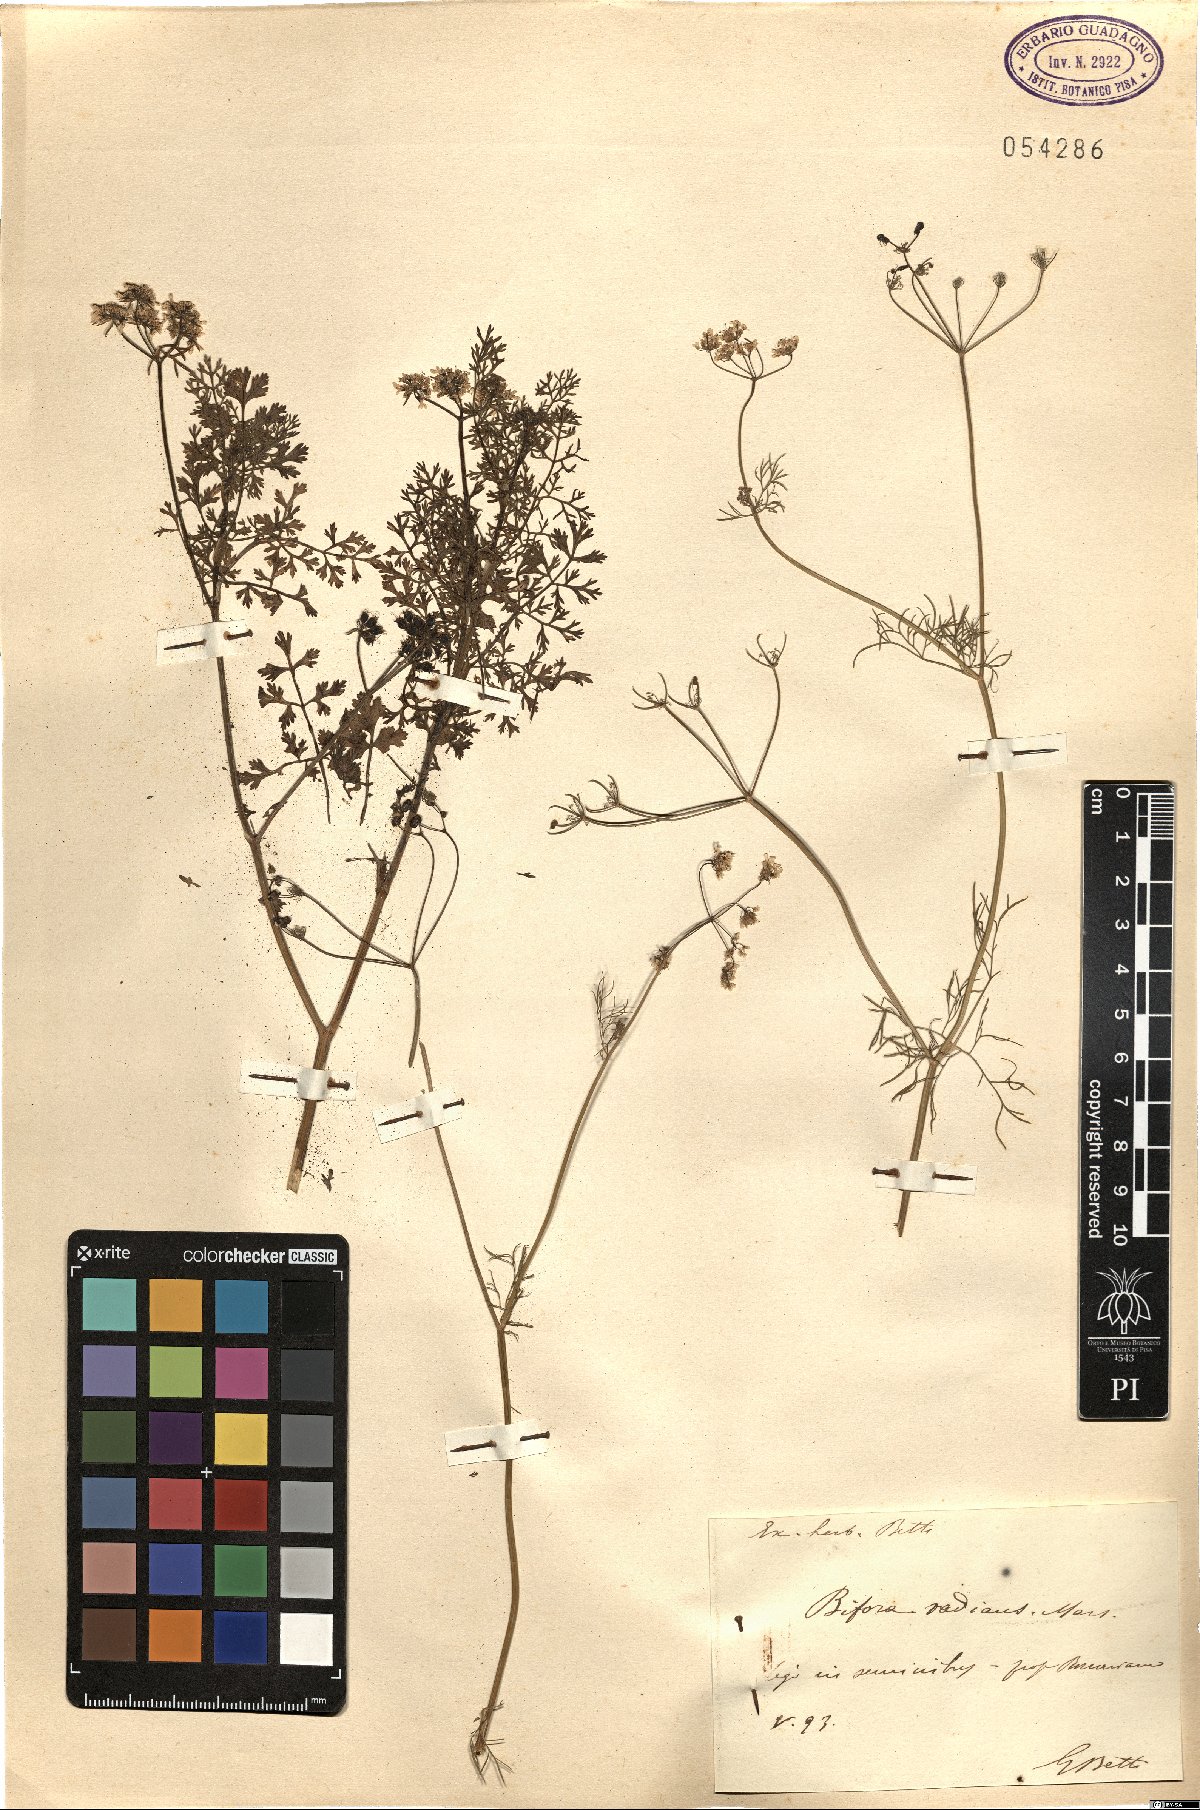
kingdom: Plantae
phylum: Tracheophyta
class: Magnoliopsida
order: Apiales
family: Apiaceae
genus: Bifora
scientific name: Bifora radians
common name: Wild bishop
